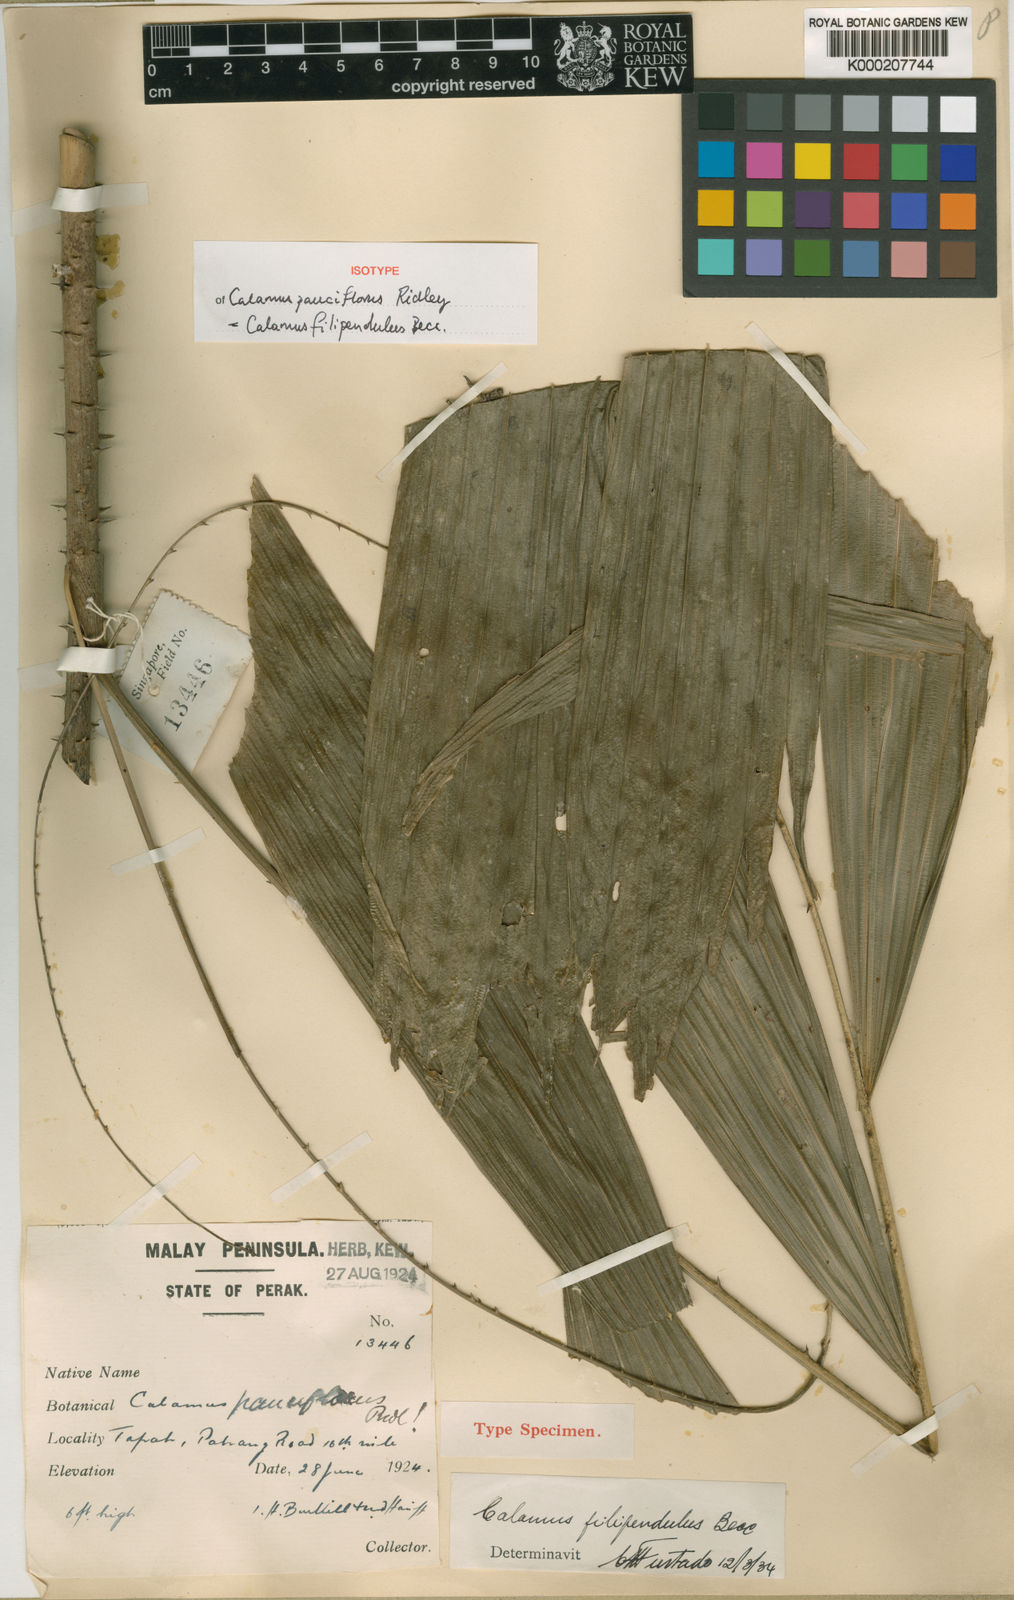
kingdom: Plantae
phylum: Tracheophyta
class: Liliopsida
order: Arecales
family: Arecaceae
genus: Calamus
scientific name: Calamus filipendulus
